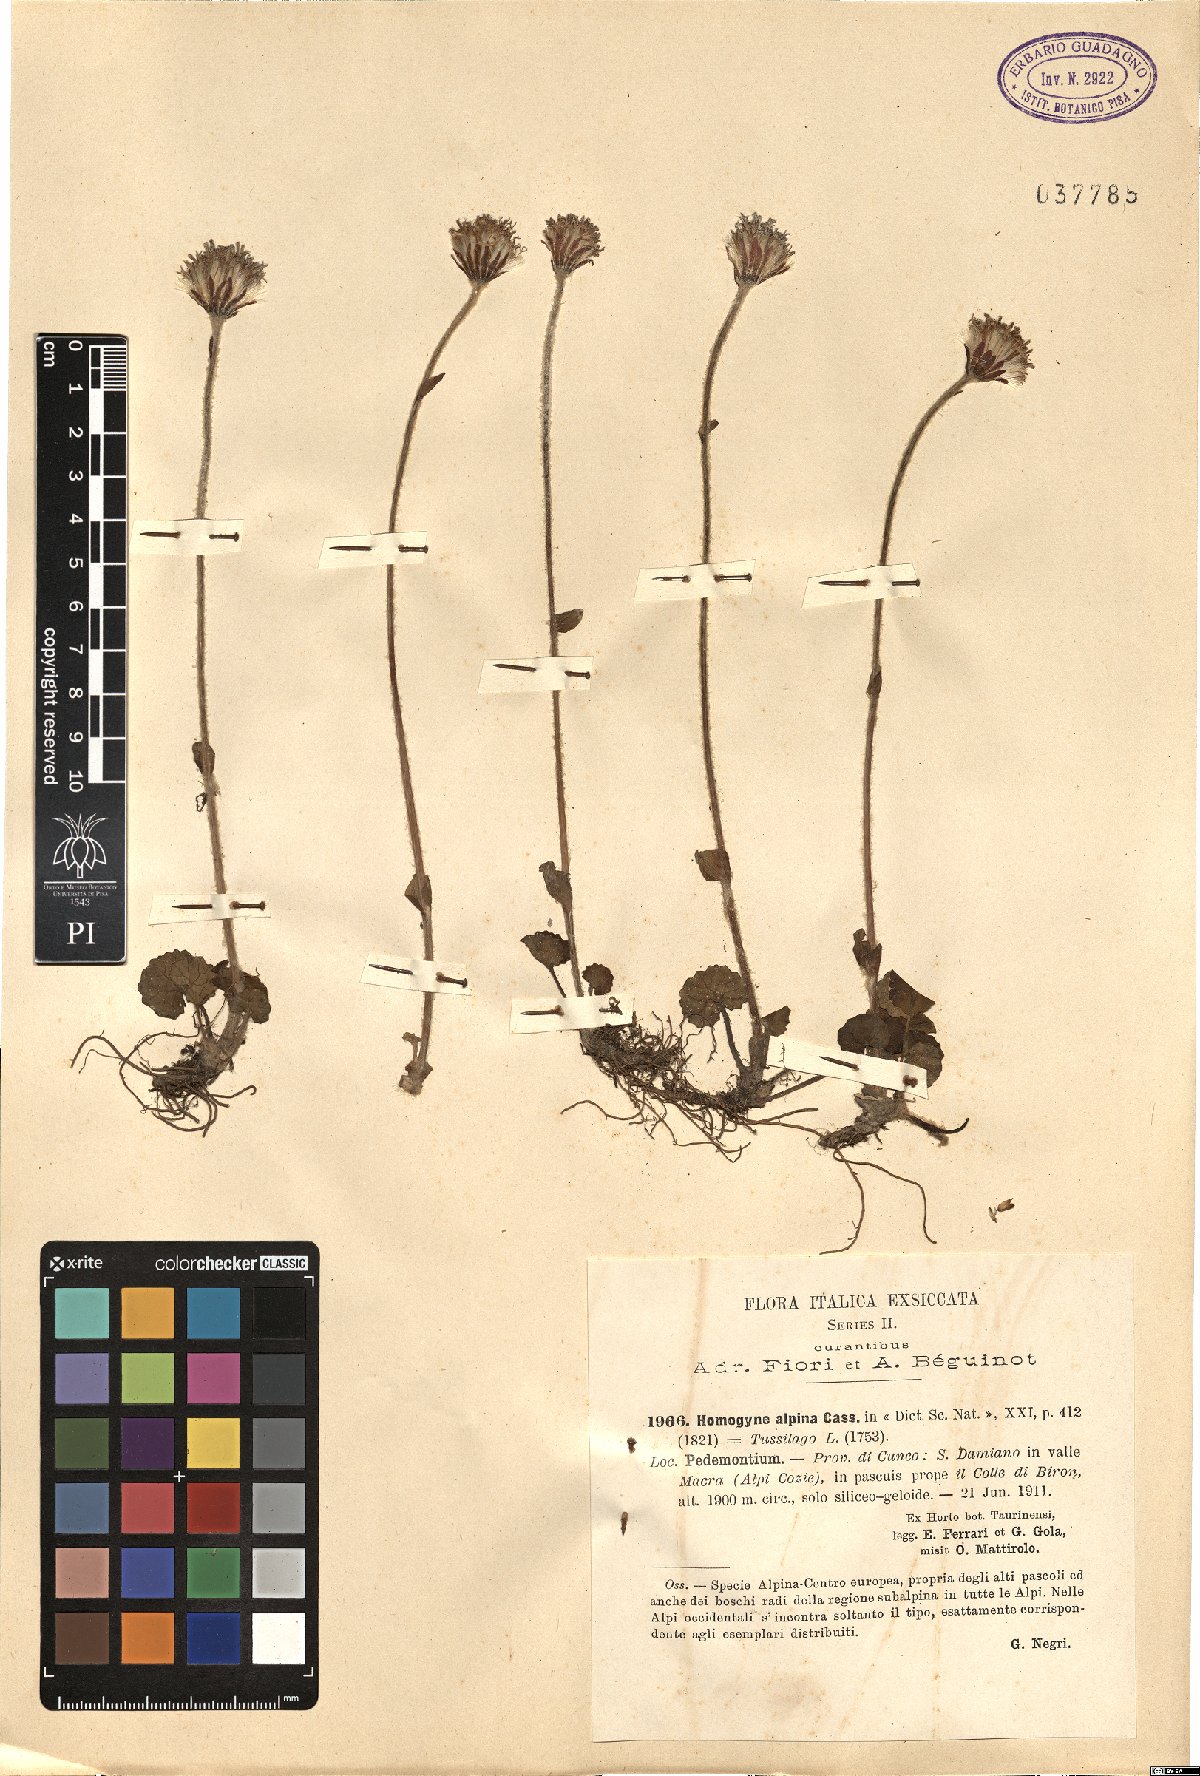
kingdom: Plantae
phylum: Tracheophyta
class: Magnoliopsida
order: Asterales
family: Asteraceae
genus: Homogyne
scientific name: Homogyne alpina
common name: Purple colt's-foot
